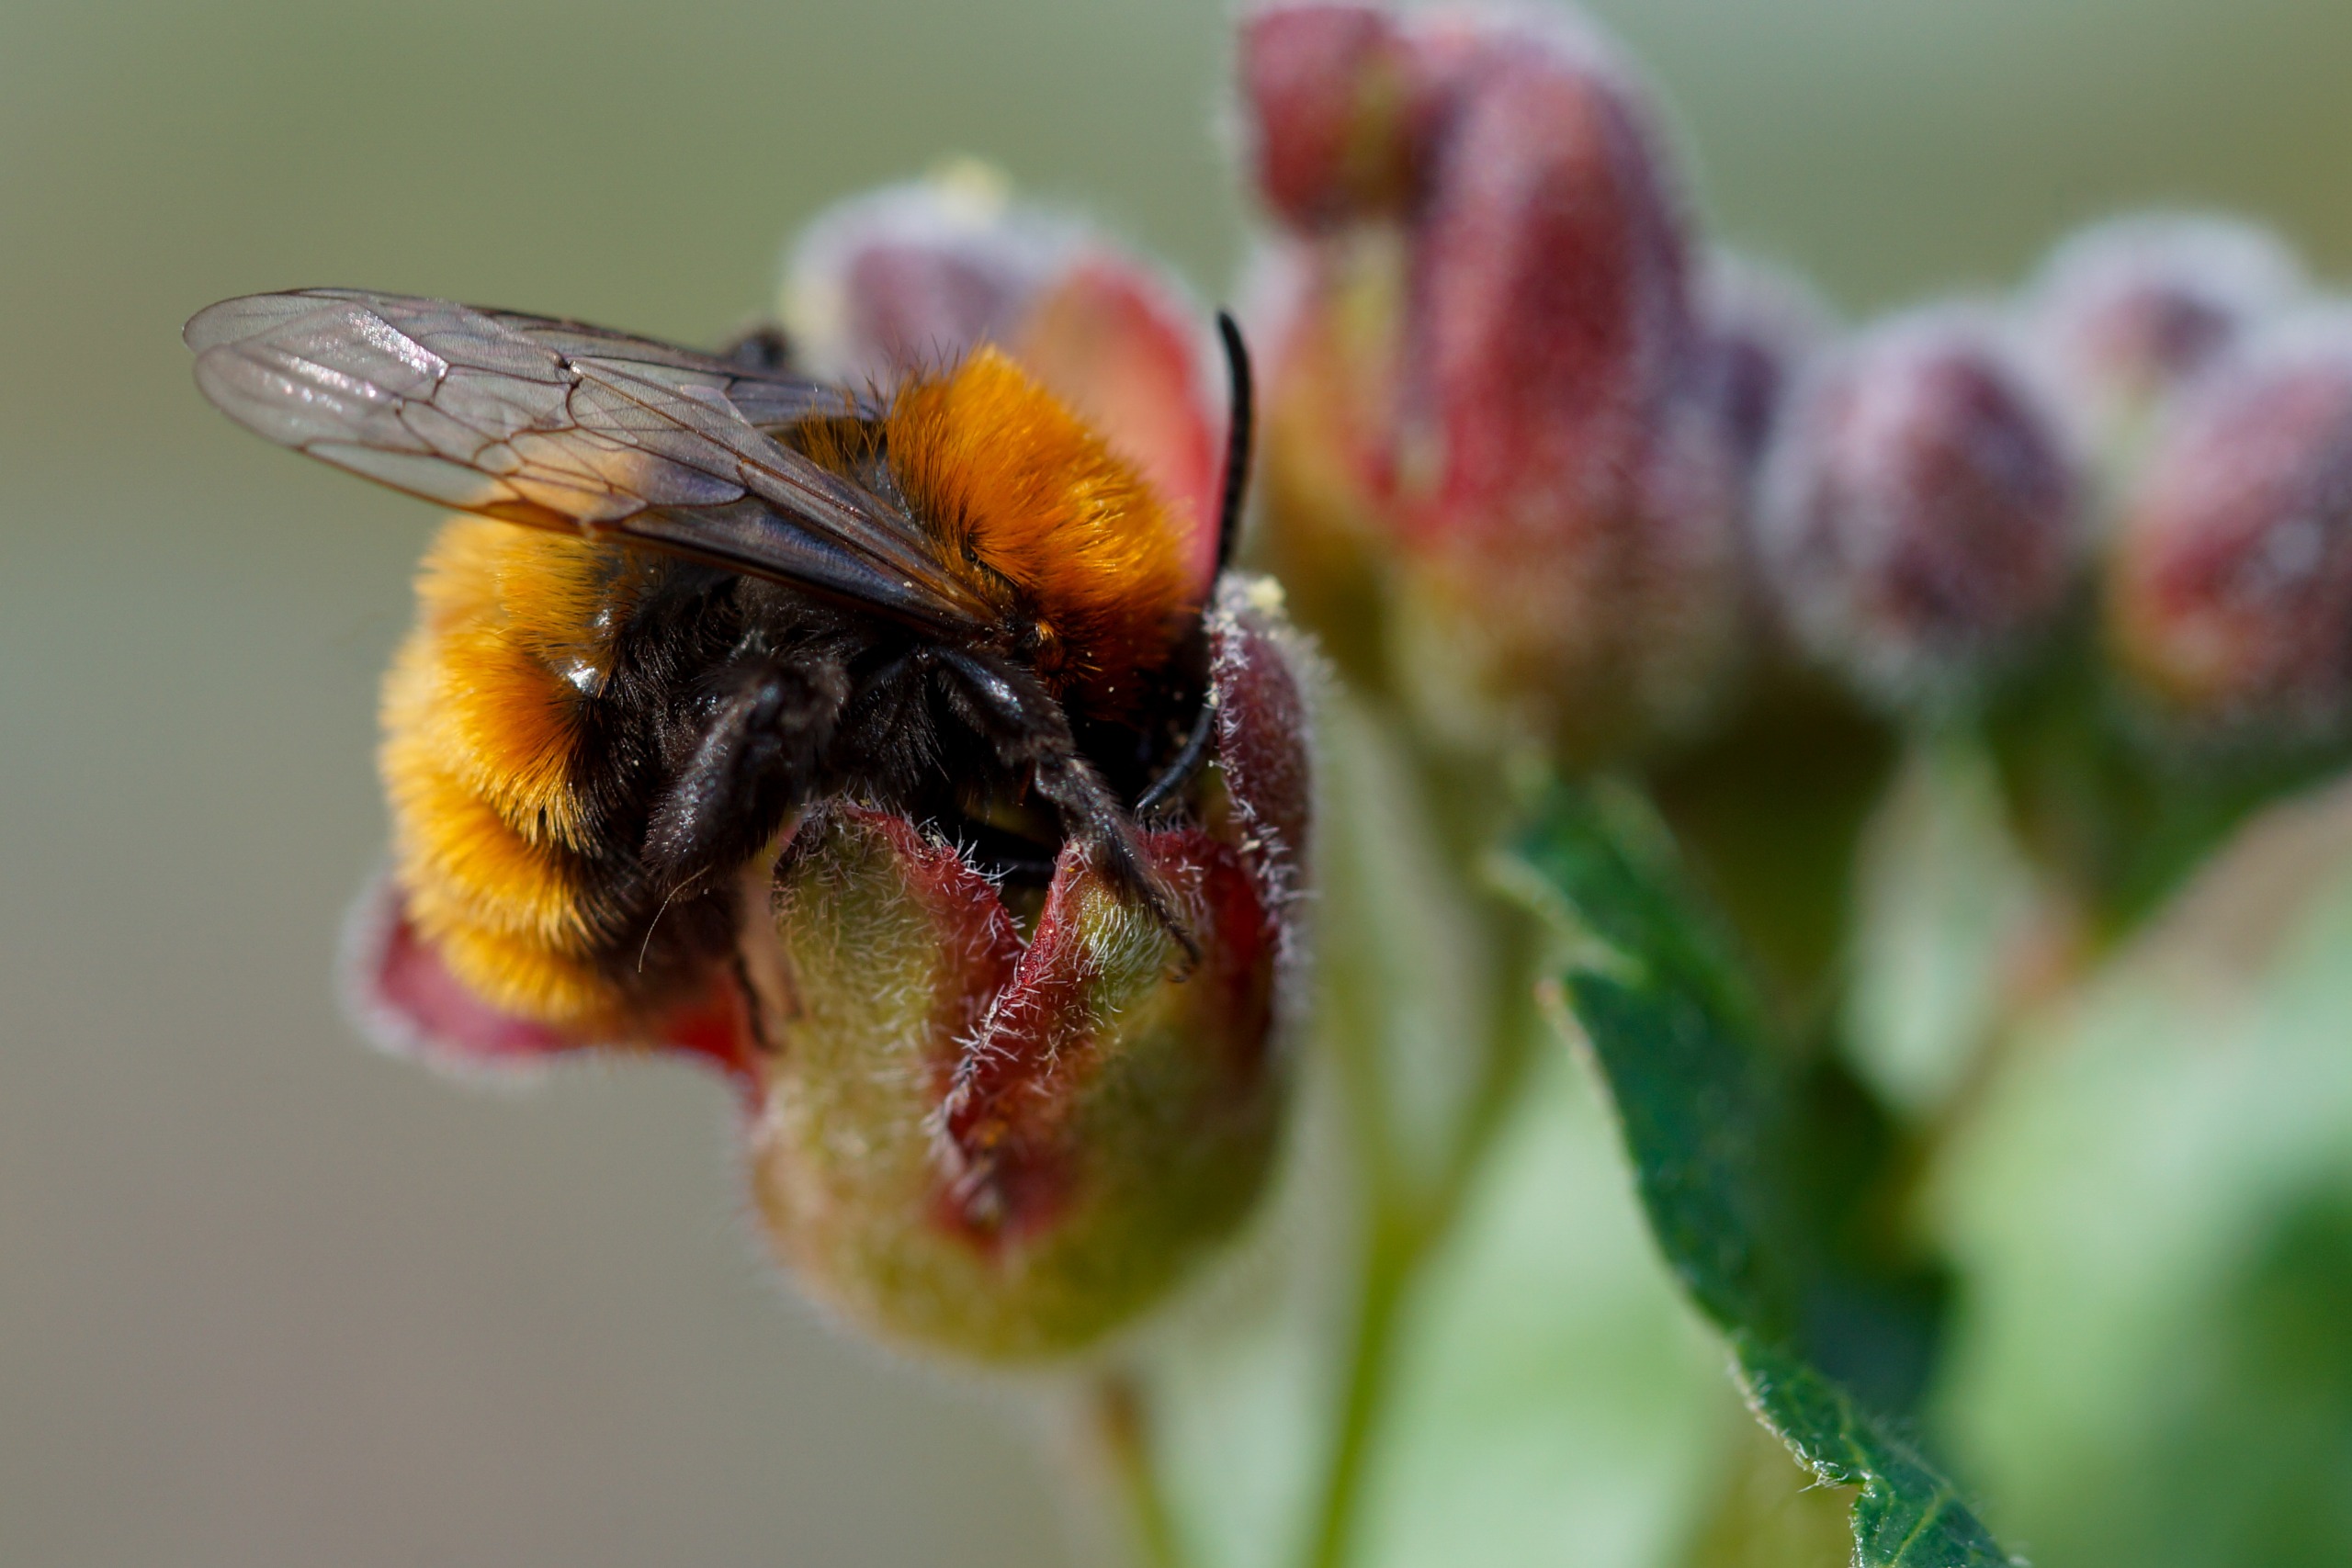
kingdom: Animalia
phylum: Arthropoda
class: Insecta
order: Hymenoptera
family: Andrenidae
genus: Andrena
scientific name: Andrena fulva
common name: Rødpelset jordbi
